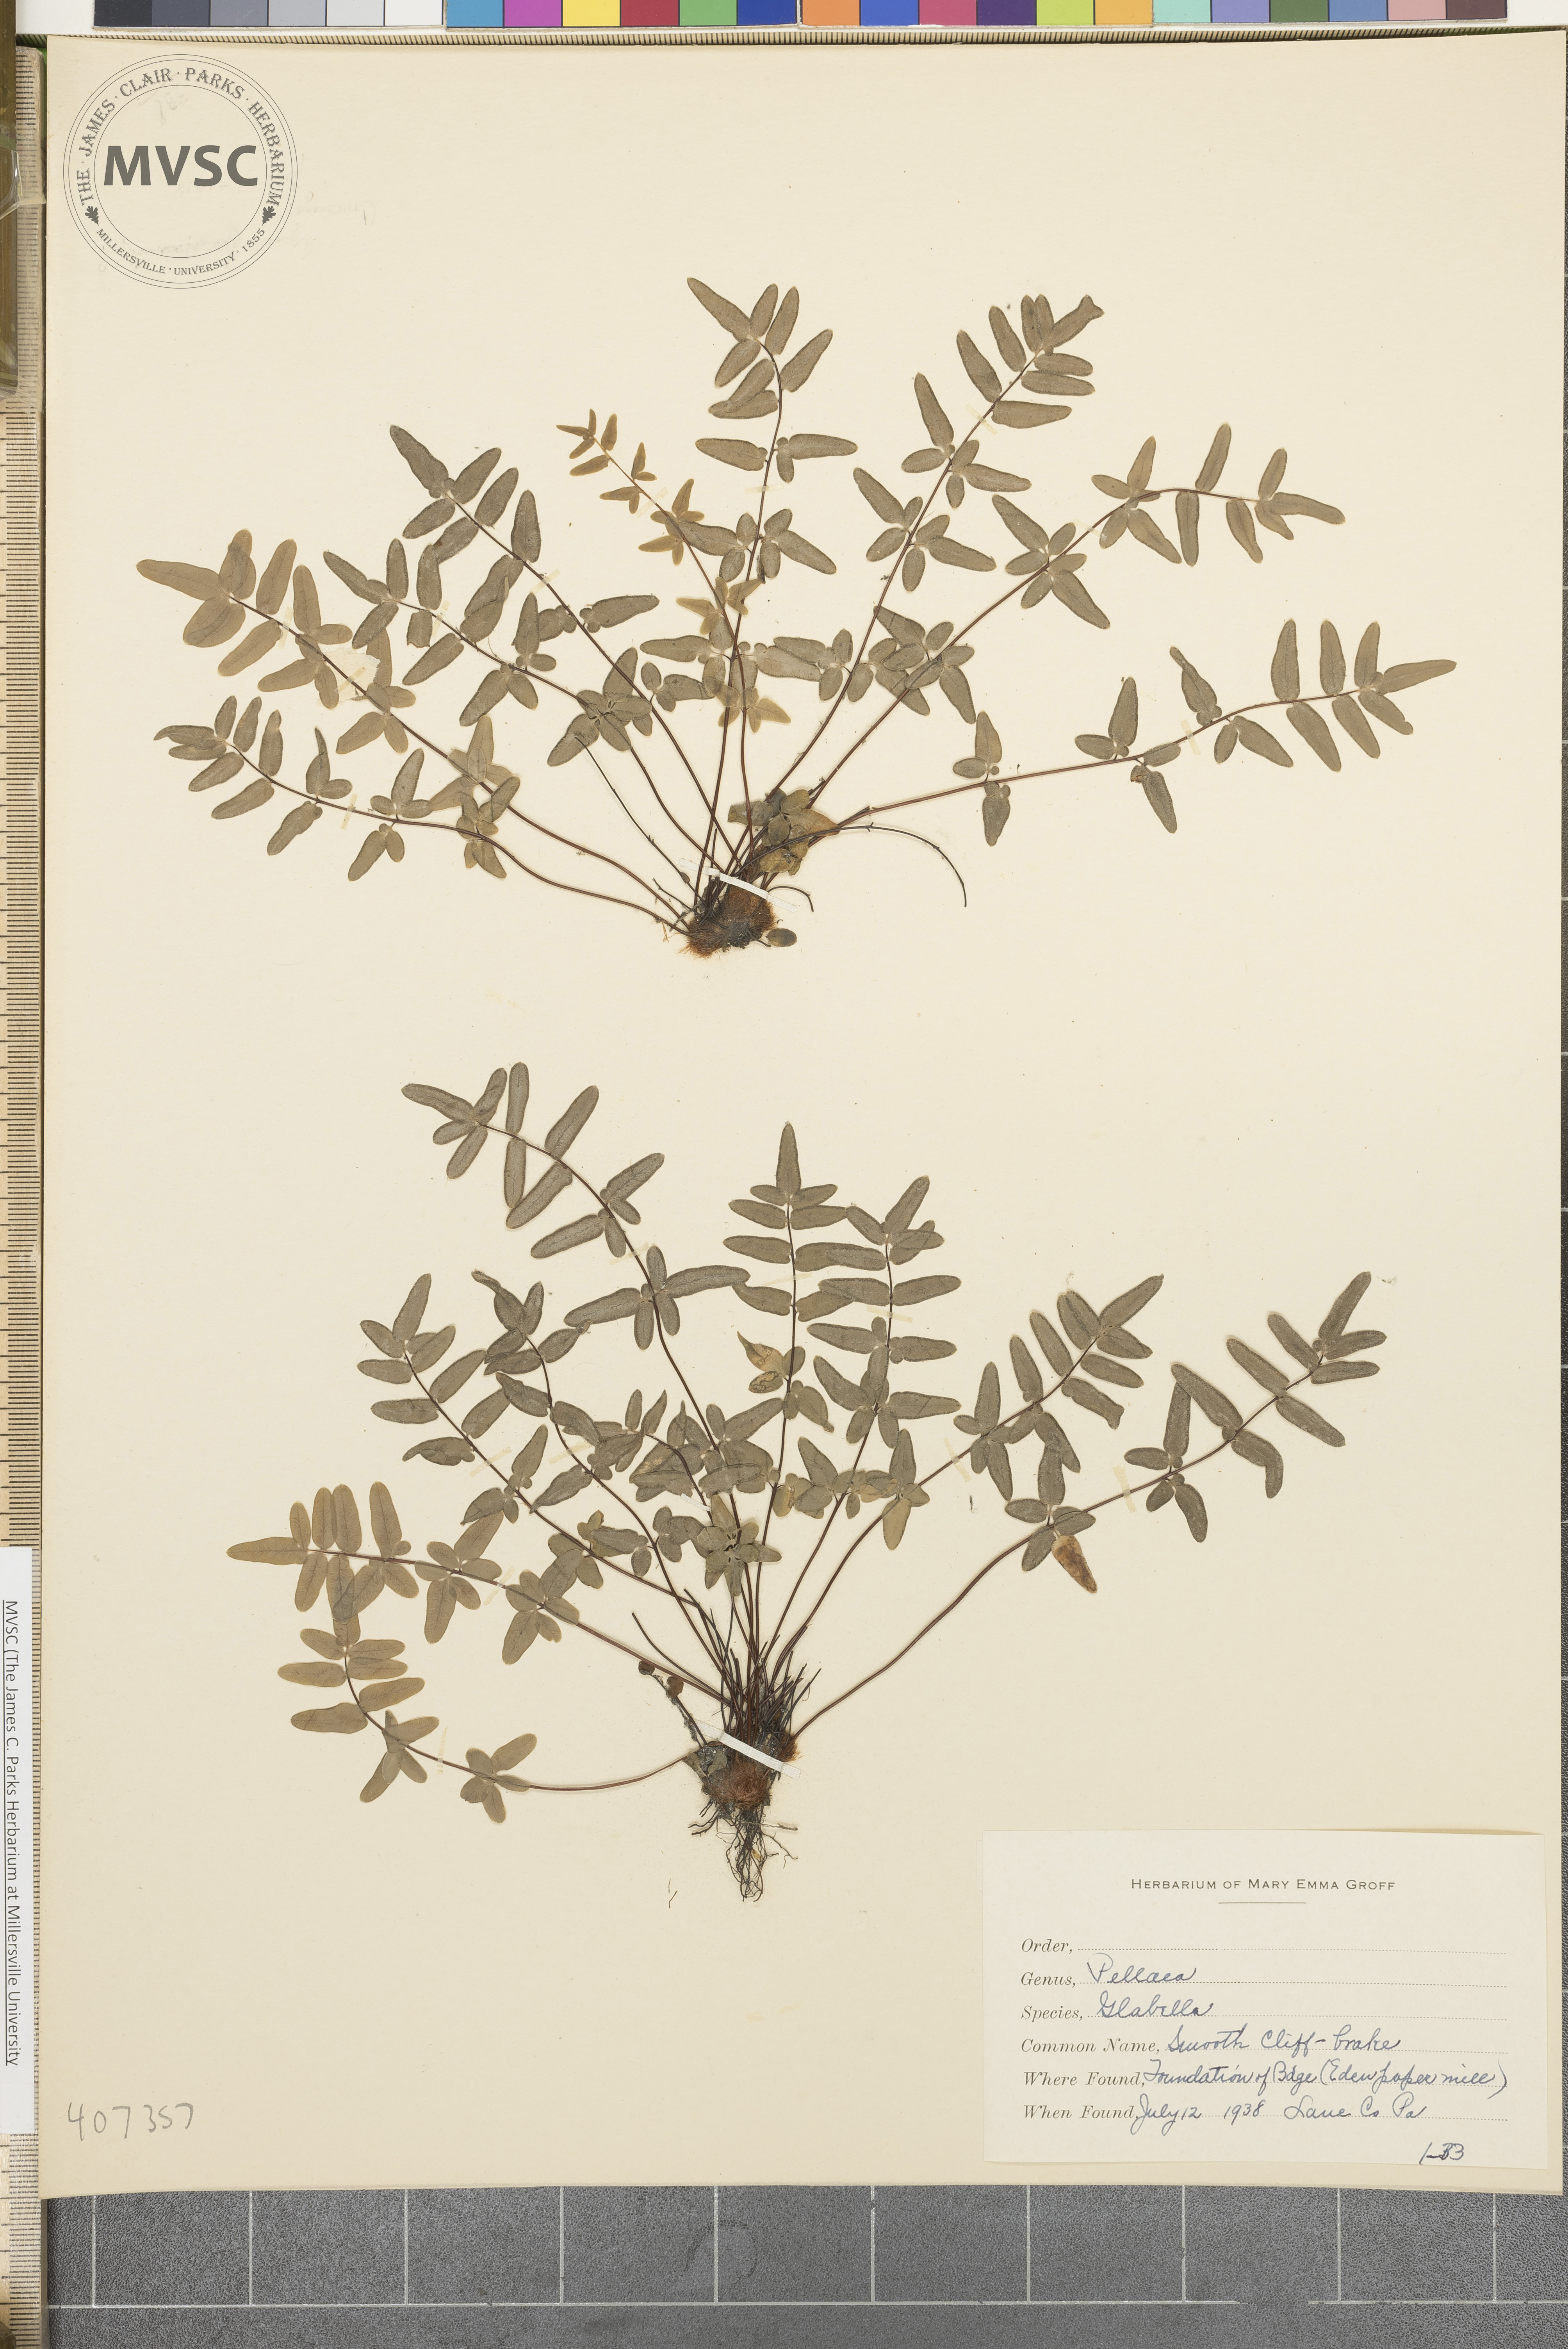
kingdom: Plantae
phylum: Tracheophyta
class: Polypodiopsida
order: Polypodiales
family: Pteridaceae
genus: Pellaea
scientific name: Pellaea glabella
